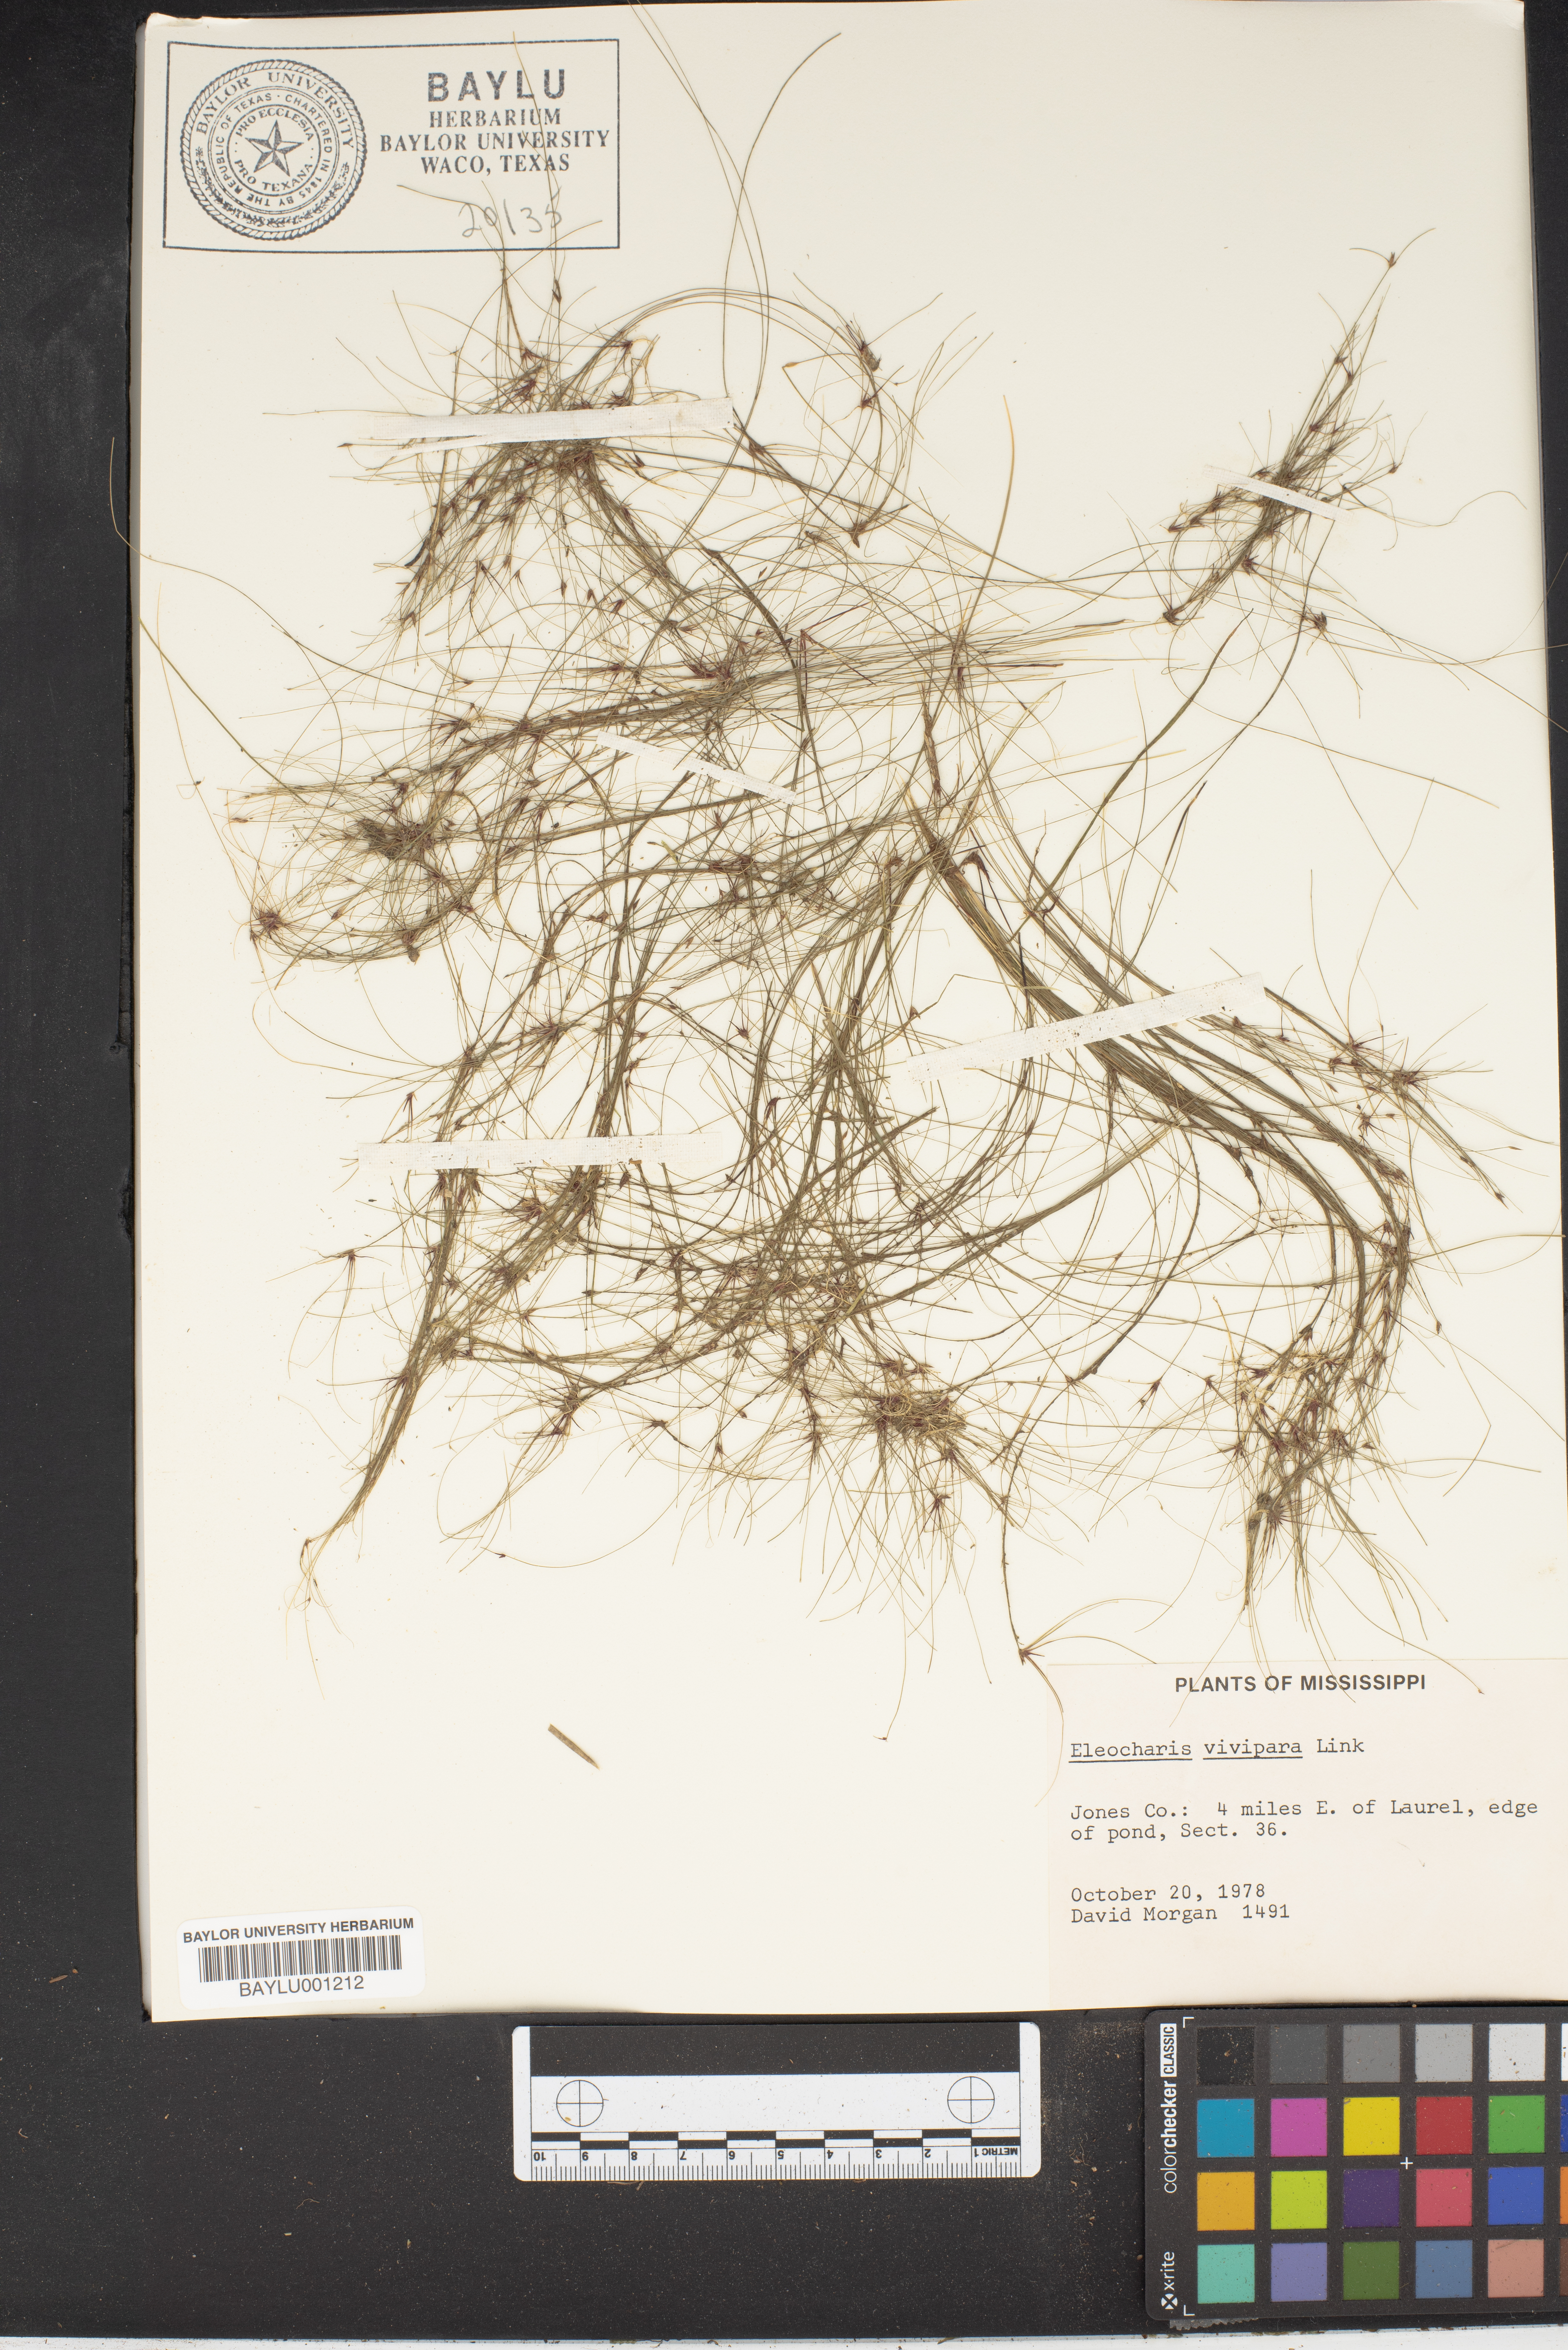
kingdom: Plantae
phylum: Tracheophyta
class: Liliopsida
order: Poales
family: Cyperaceae
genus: Eleocharis
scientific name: Eleocharis vivipara
